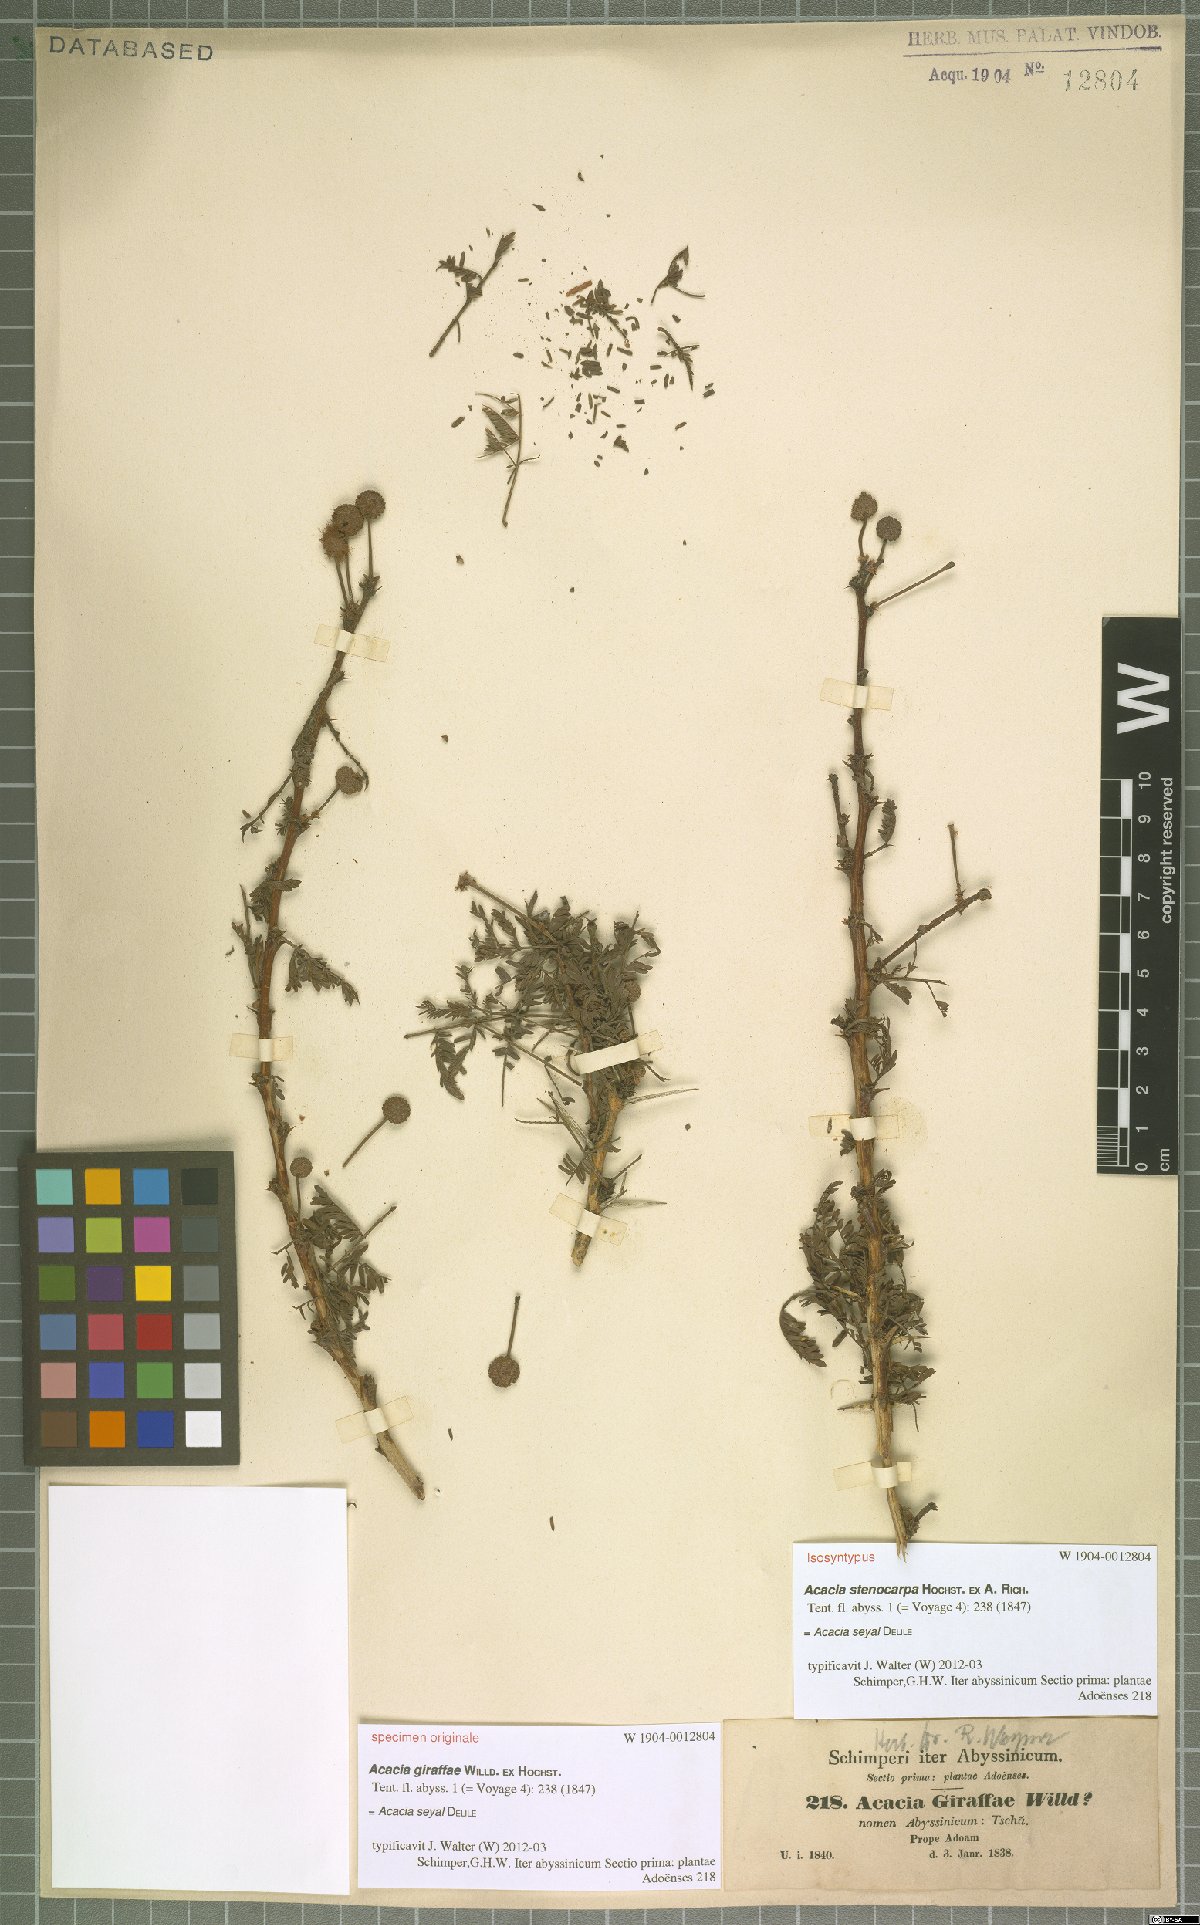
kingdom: Plantae
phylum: Tracheophyta
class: Magnoliopsida
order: Fabales
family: Fabaceae
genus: Vachellia
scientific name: Vachellia seyal
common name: Thirtythorn
